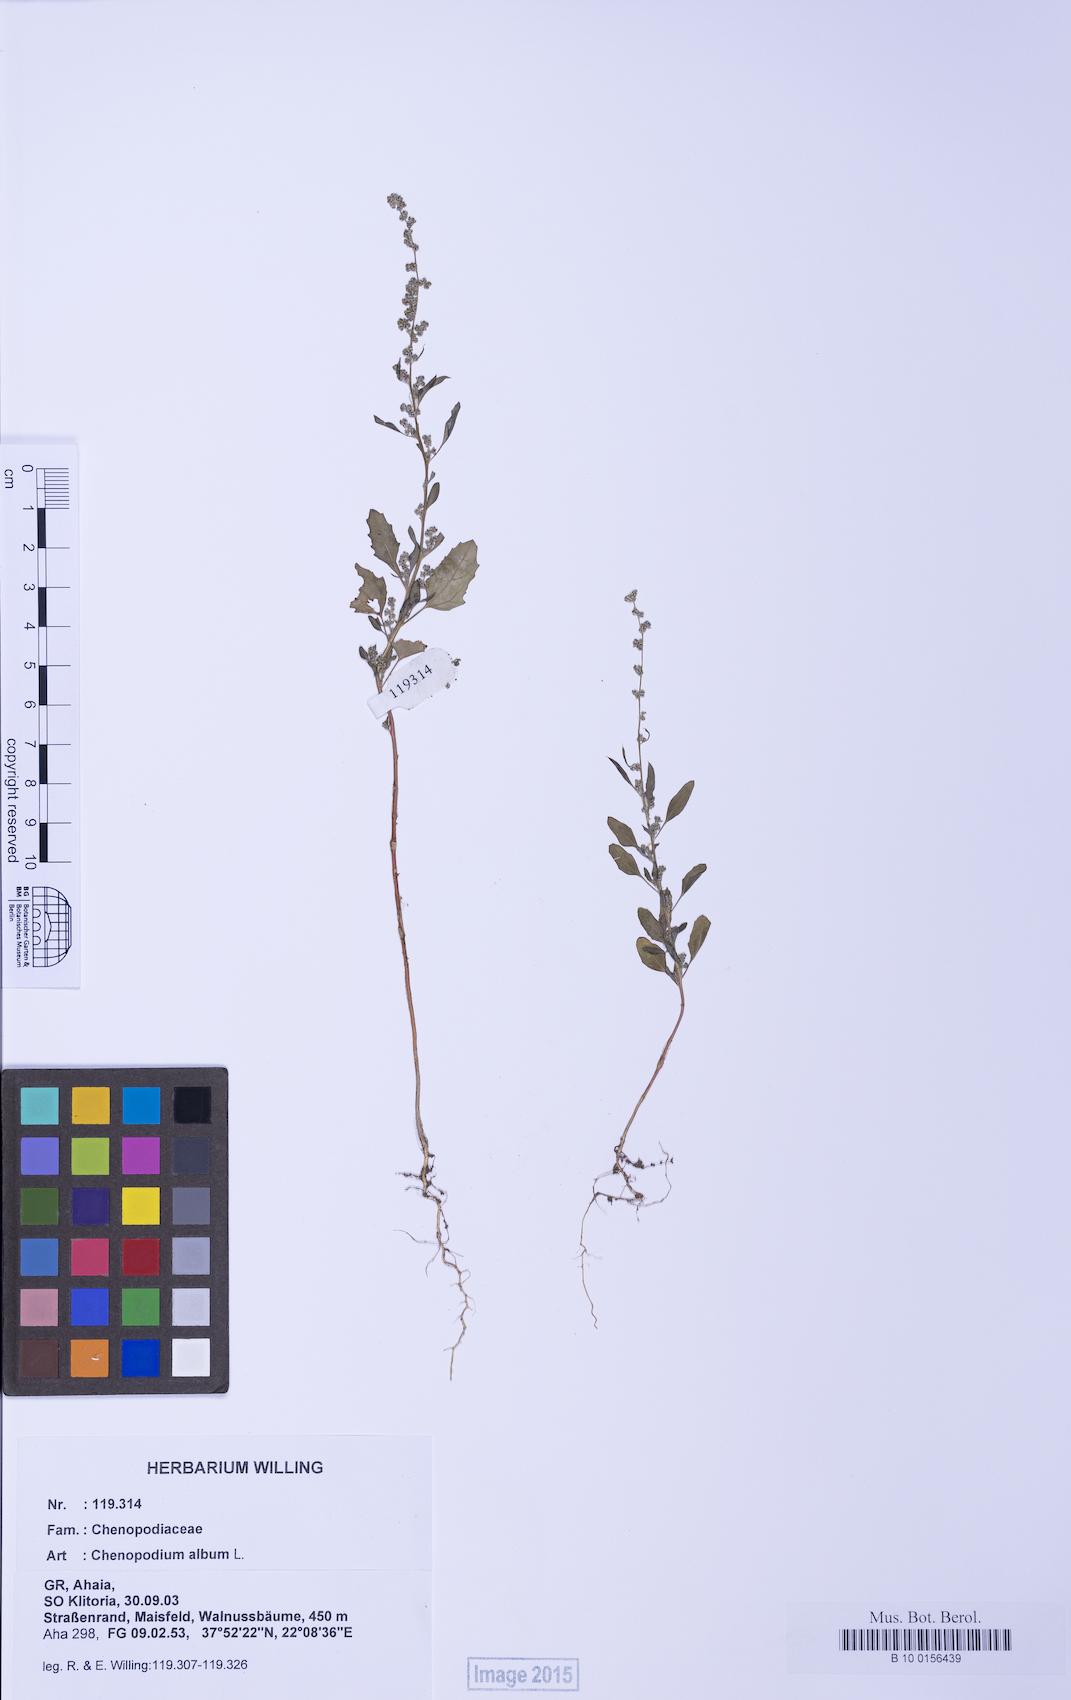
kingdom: Plantae
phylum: Tracheophyta
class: Magnoliopsida
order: Caryophyllales
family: Amaranthaceae
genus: Chenopodium
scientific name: Chenopodium album
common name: Fat-hen
